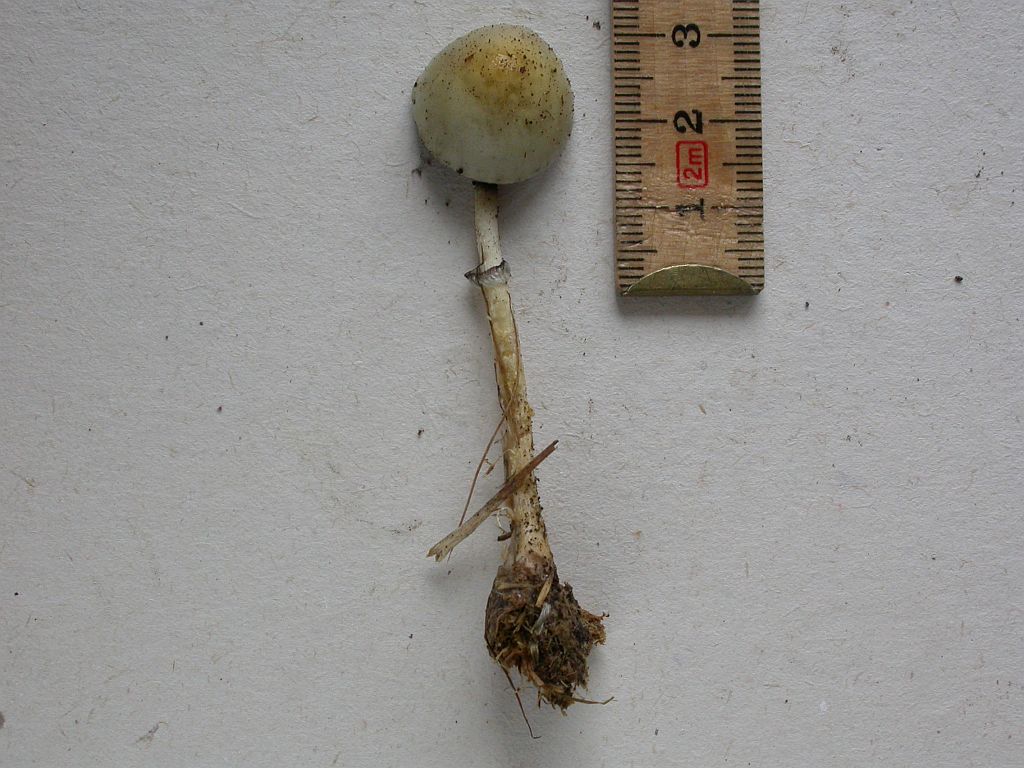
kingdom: Fungi
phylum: Basidiomycota
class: Agaricomycetes
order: Agaricales
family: Strophariaceae
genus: Protostropharia
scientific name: Protostropharia dorsipora
